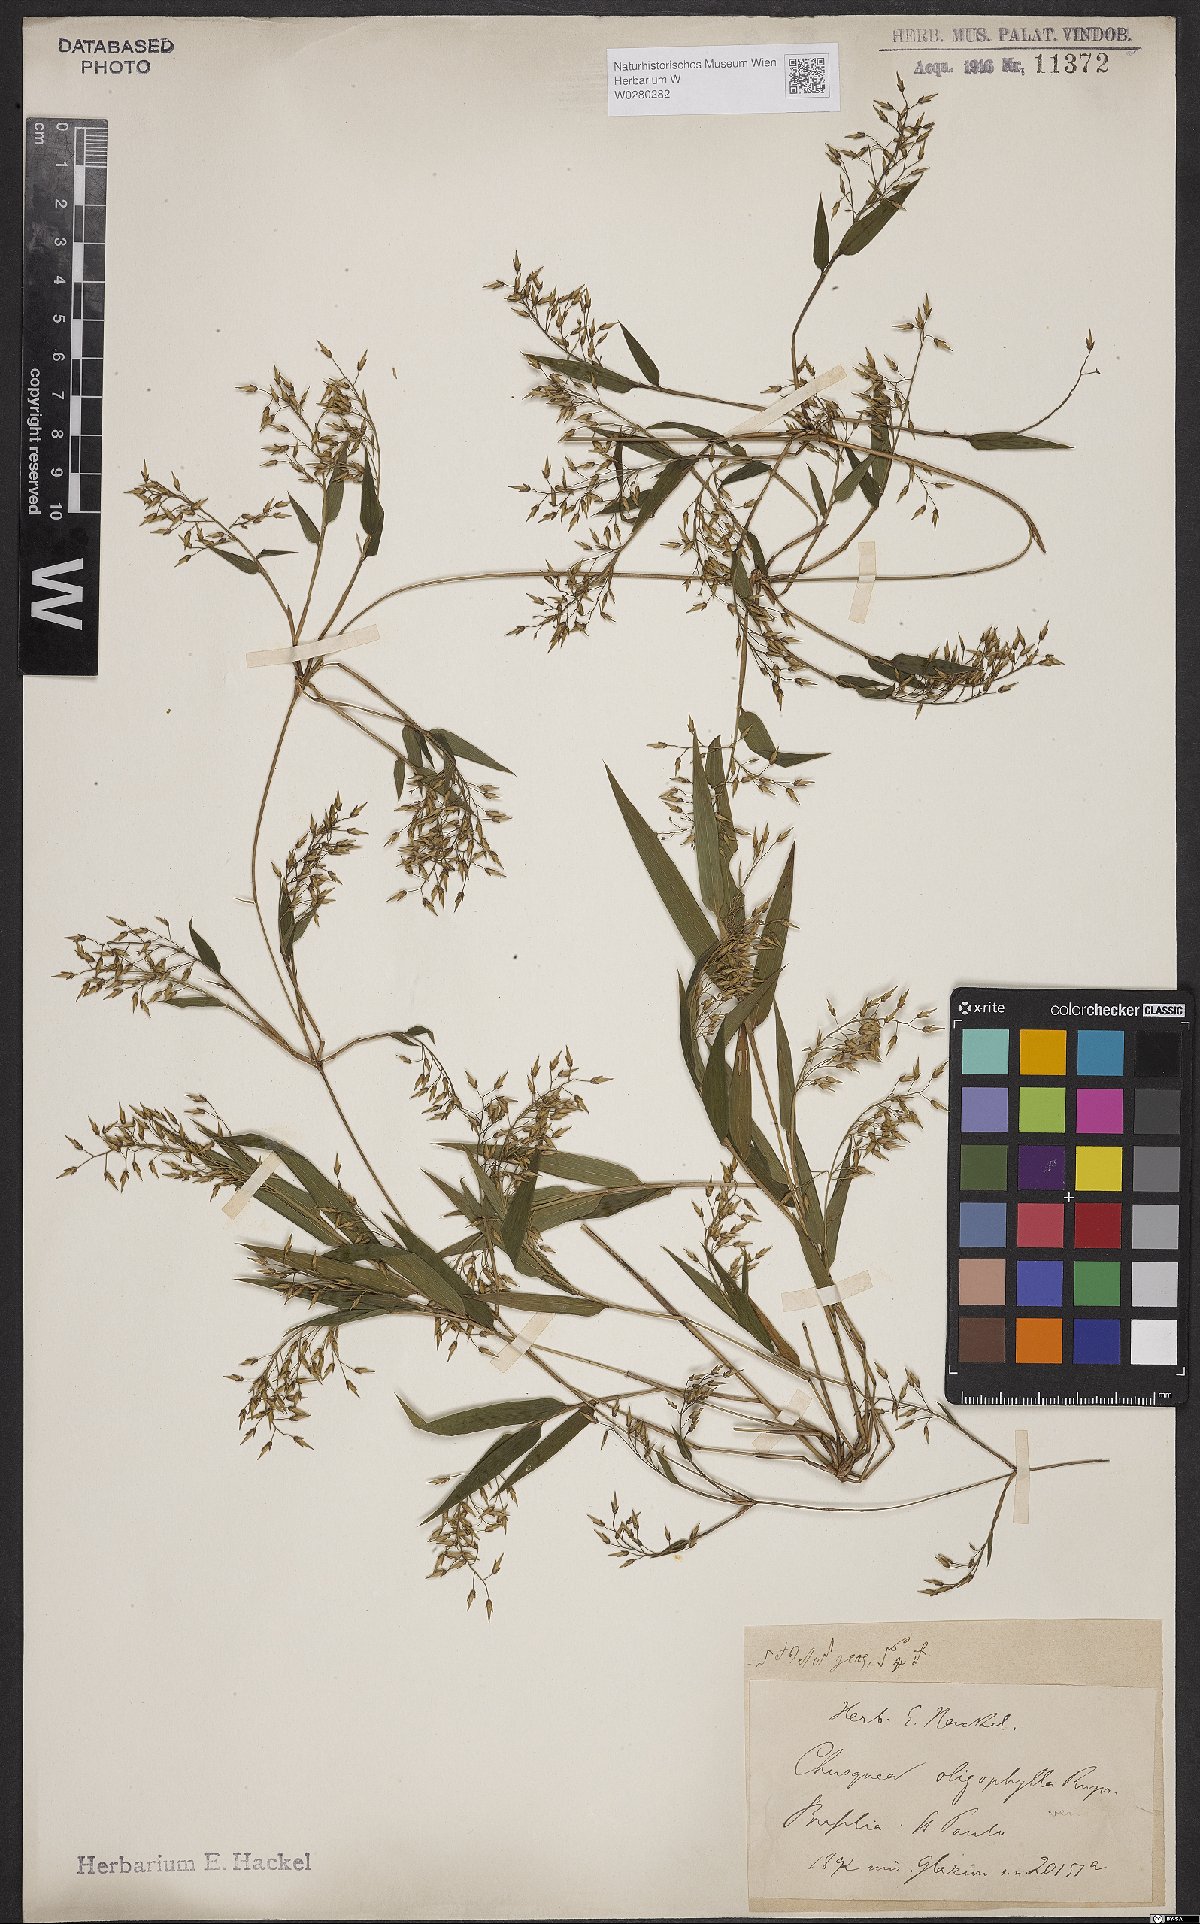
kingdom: Plantae
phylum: Tracheophyta
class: Liliopsida
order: Poales
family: Poaceae
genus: Chusquea
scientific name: Chusquea oligophylla
